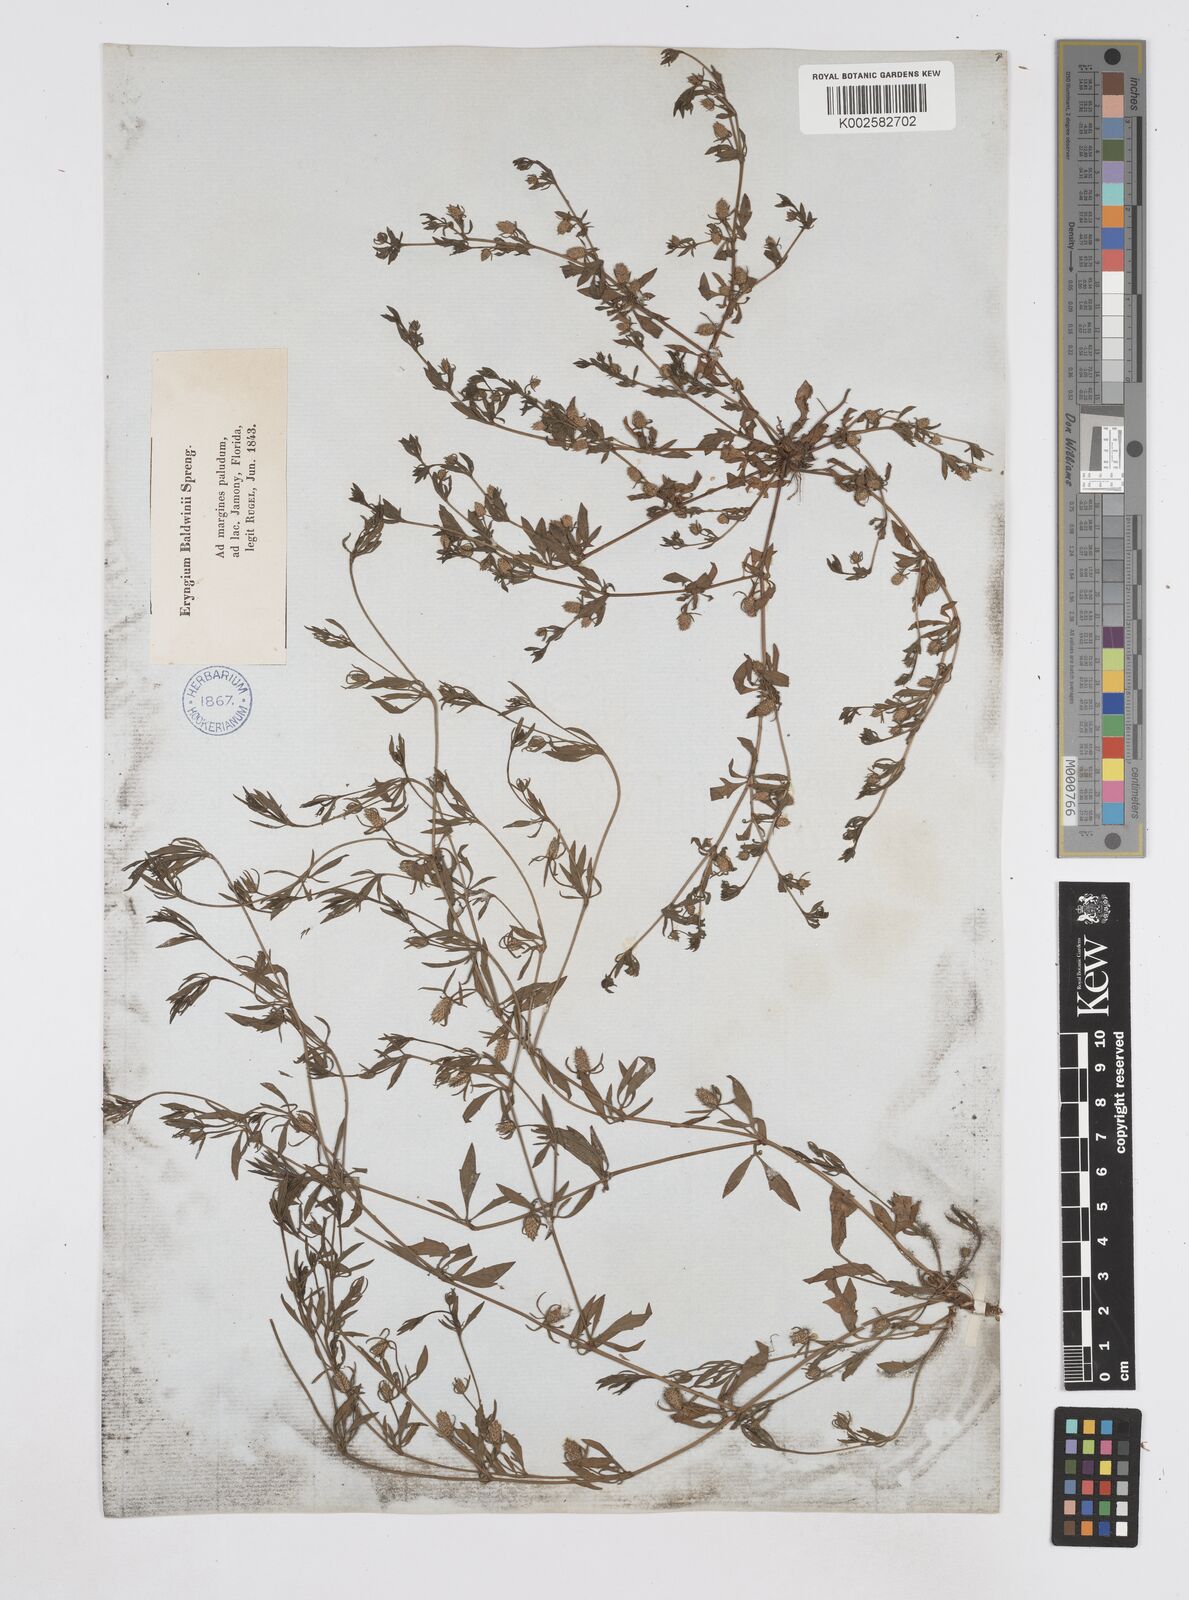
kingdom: Plantae
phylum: Tracheophyta
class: Magnoliopsida
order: Apiales
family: Apiaceae
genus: Eryngium
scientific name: Eryngium prostratum
